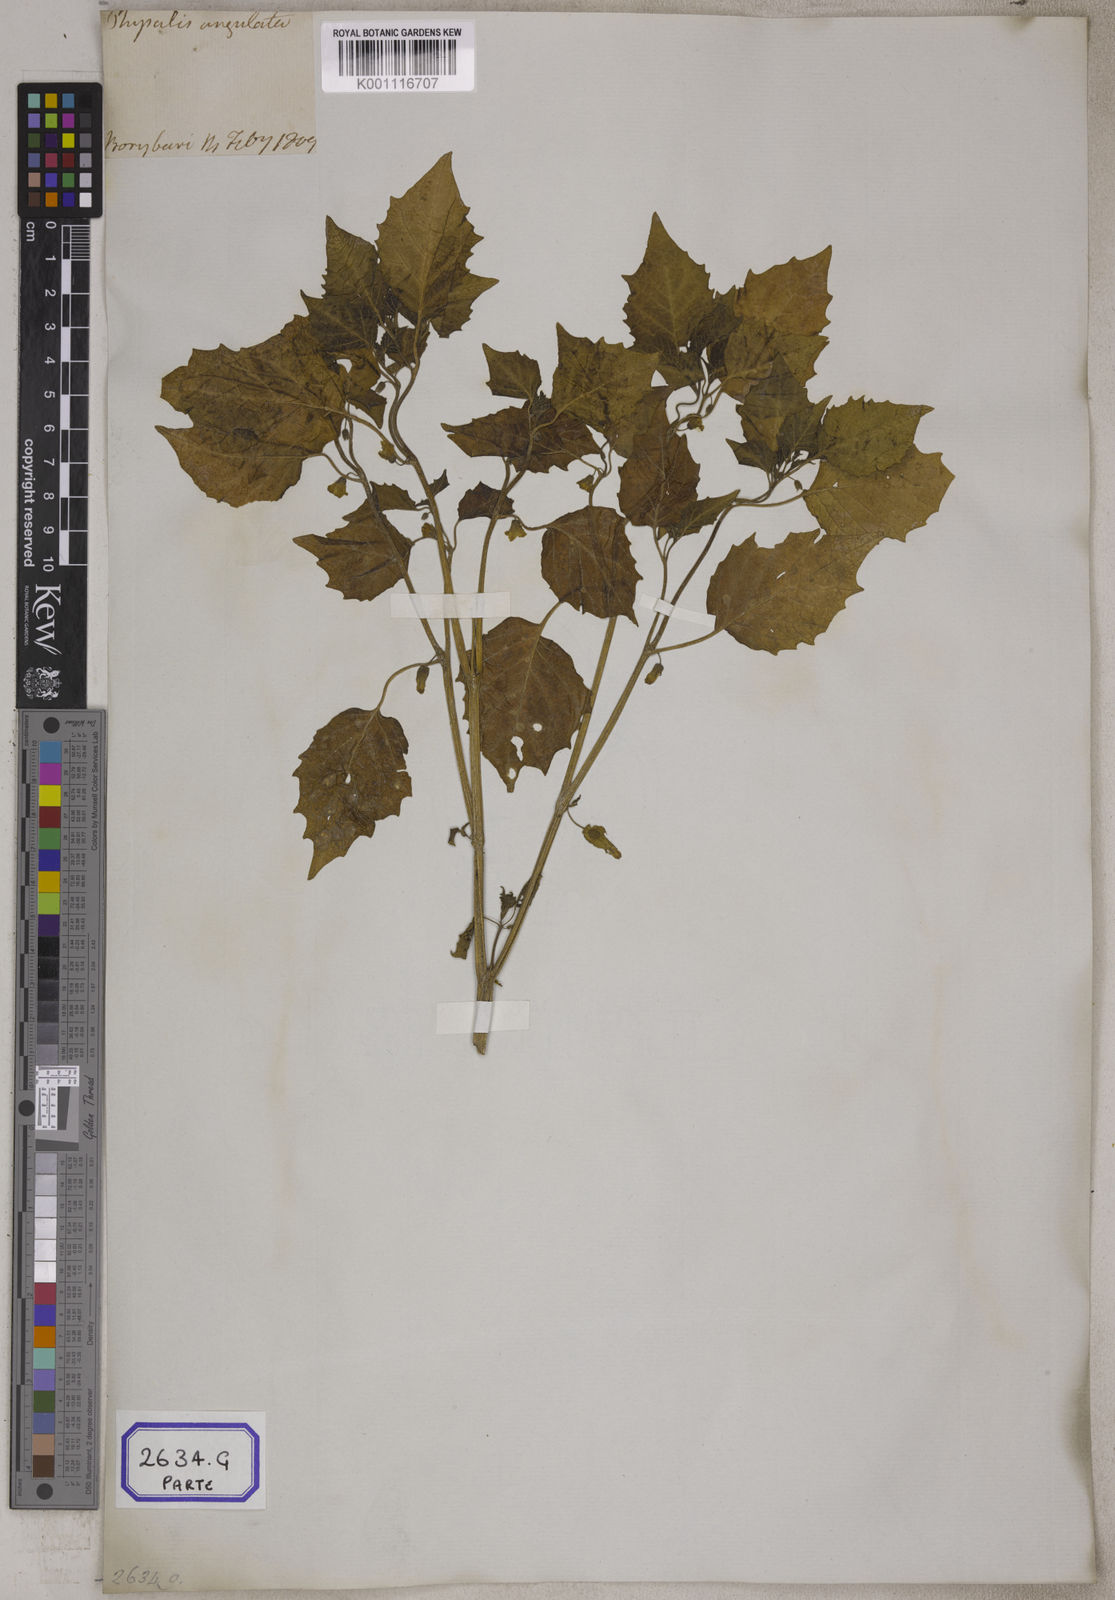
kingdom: Plantae
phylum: Tracheophyta
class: Magnoliopsida
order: Solanales
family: Solanaceae
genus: Physalis
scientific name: Physalis peruviana
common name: Cape-gooseberry
